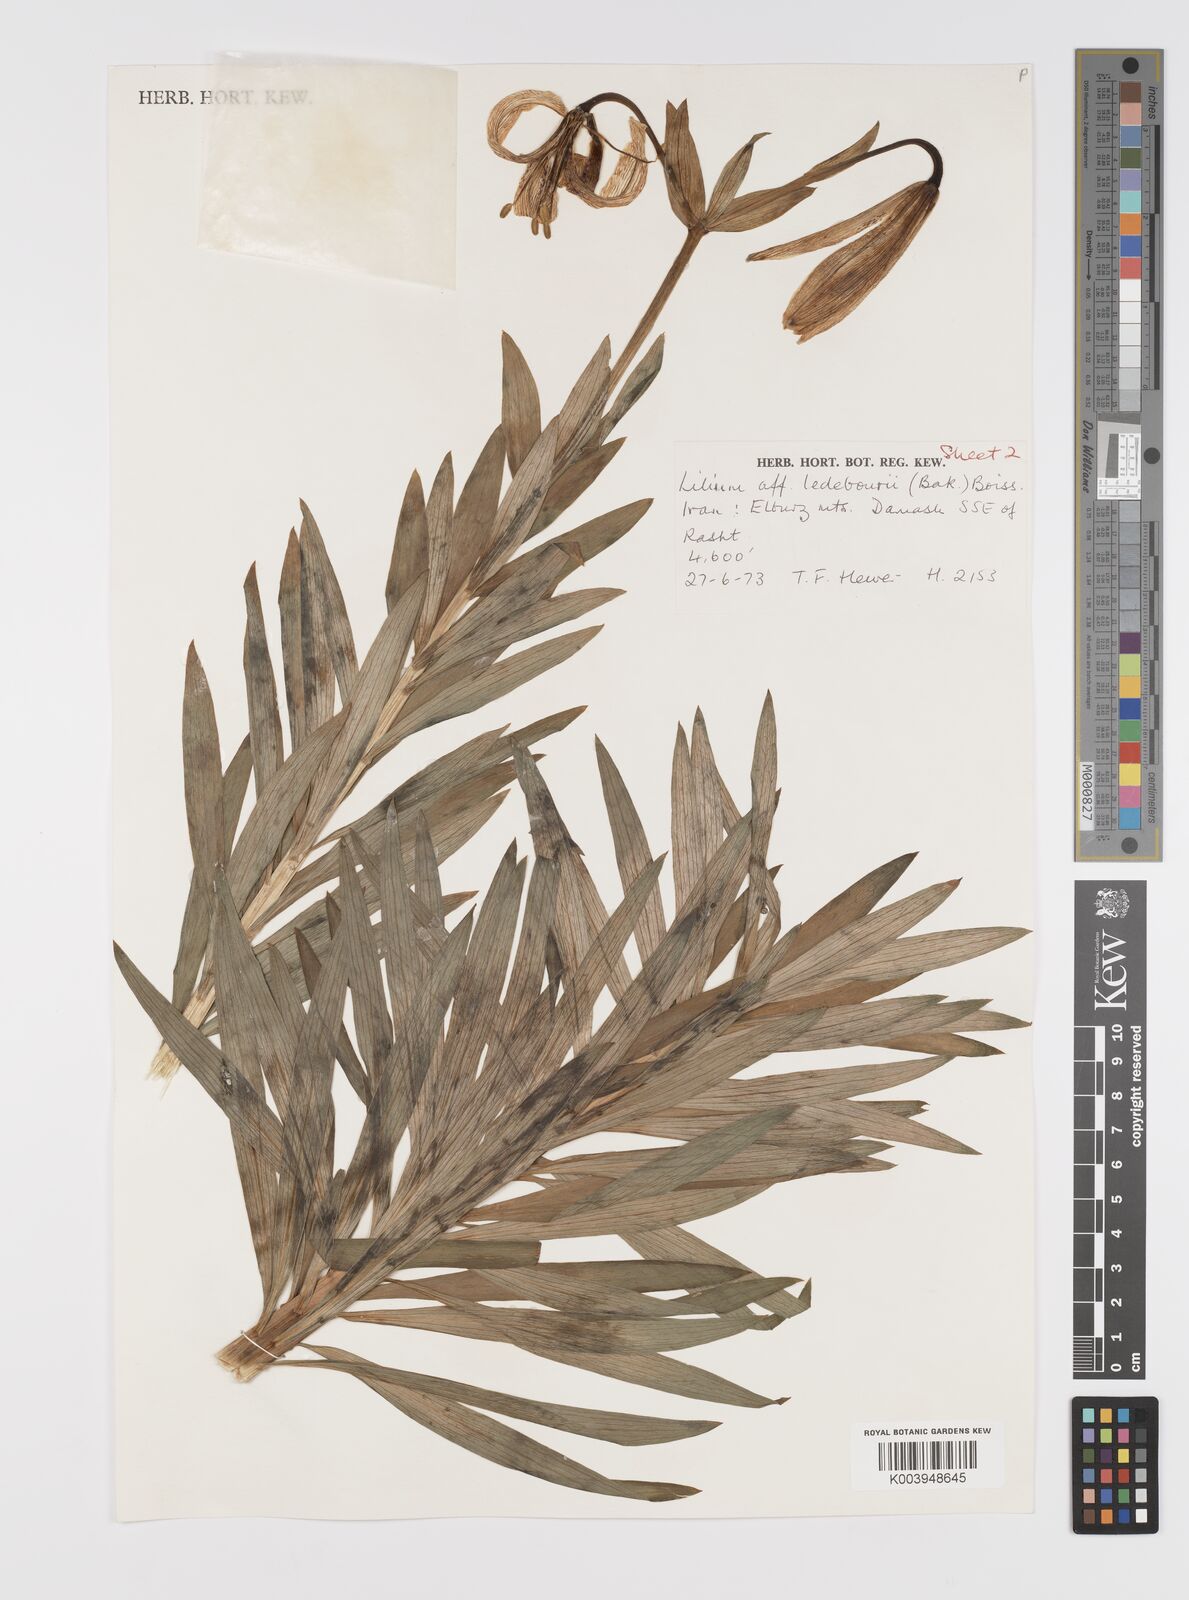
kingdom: Plantae
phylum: Tracheophyta
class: Liliopsida
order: Liliales
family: Liliaceae
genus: Lilium
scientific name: Lilium ledebourii
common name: Ledebour's lily
